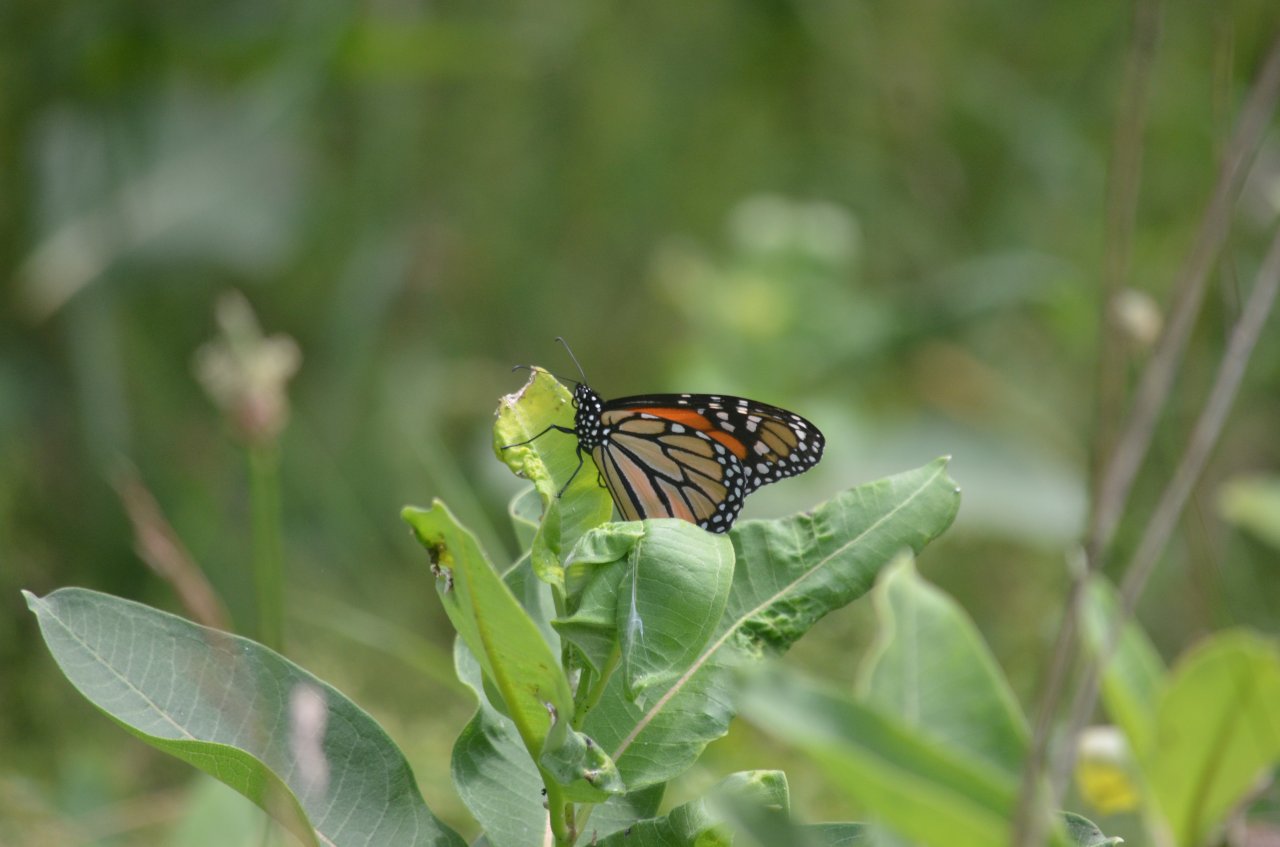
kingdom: Animalia
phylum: Arthropoda
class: Insecta
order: Lepidoptera
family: Nymphalidae
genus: Danaus
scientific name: Danaus plexippus
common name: Monarch
